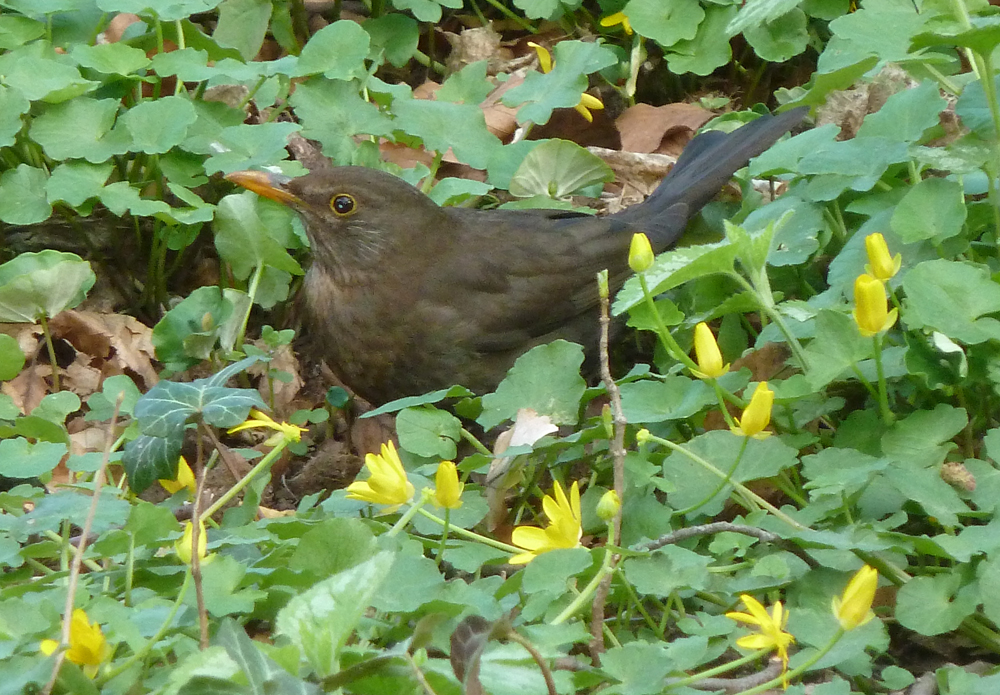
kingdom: Animalia
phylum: Chordata
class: Aves
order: Passeriformes
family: Turdidae
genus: Turdus
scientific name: Turdus merula
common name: Common blackbird
